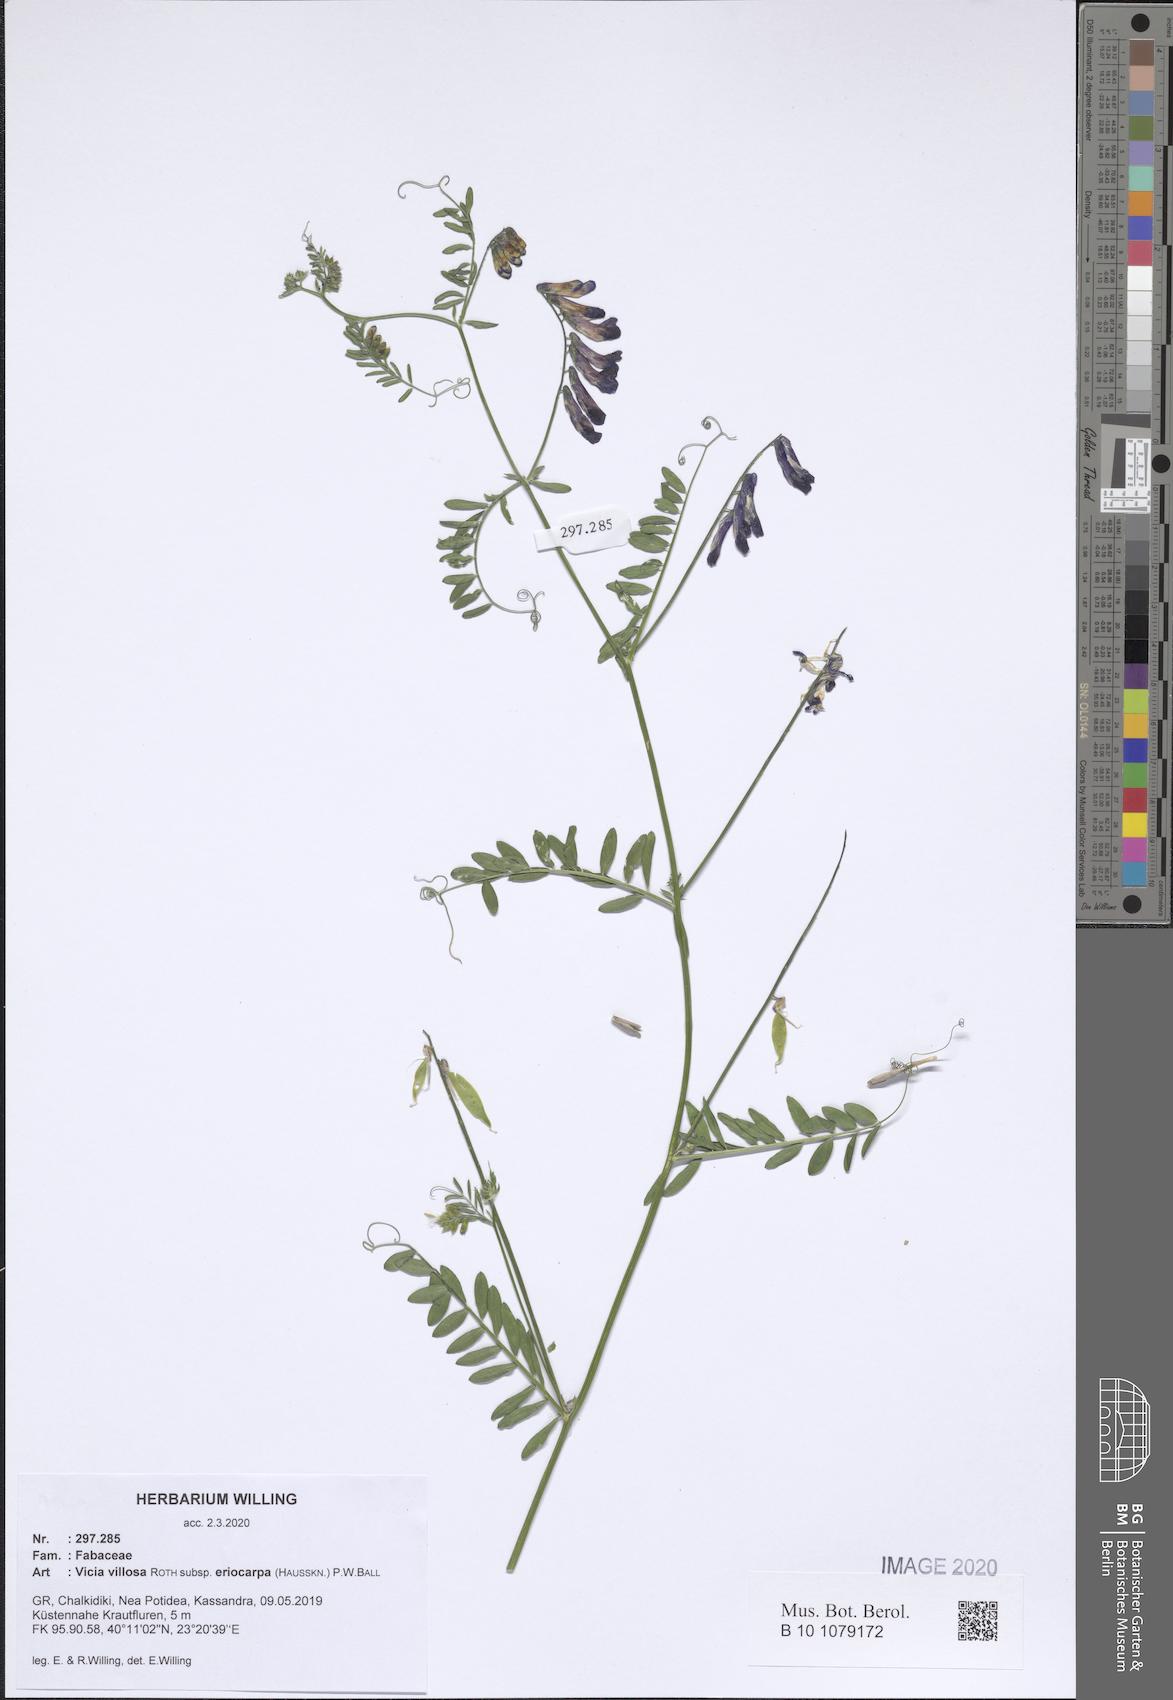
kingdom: Plantae
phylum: Tracheophyta
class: Magnoliopsida
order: Fabales
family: Fabaceae
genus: Vicia
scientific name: Vicia eriocarpa
